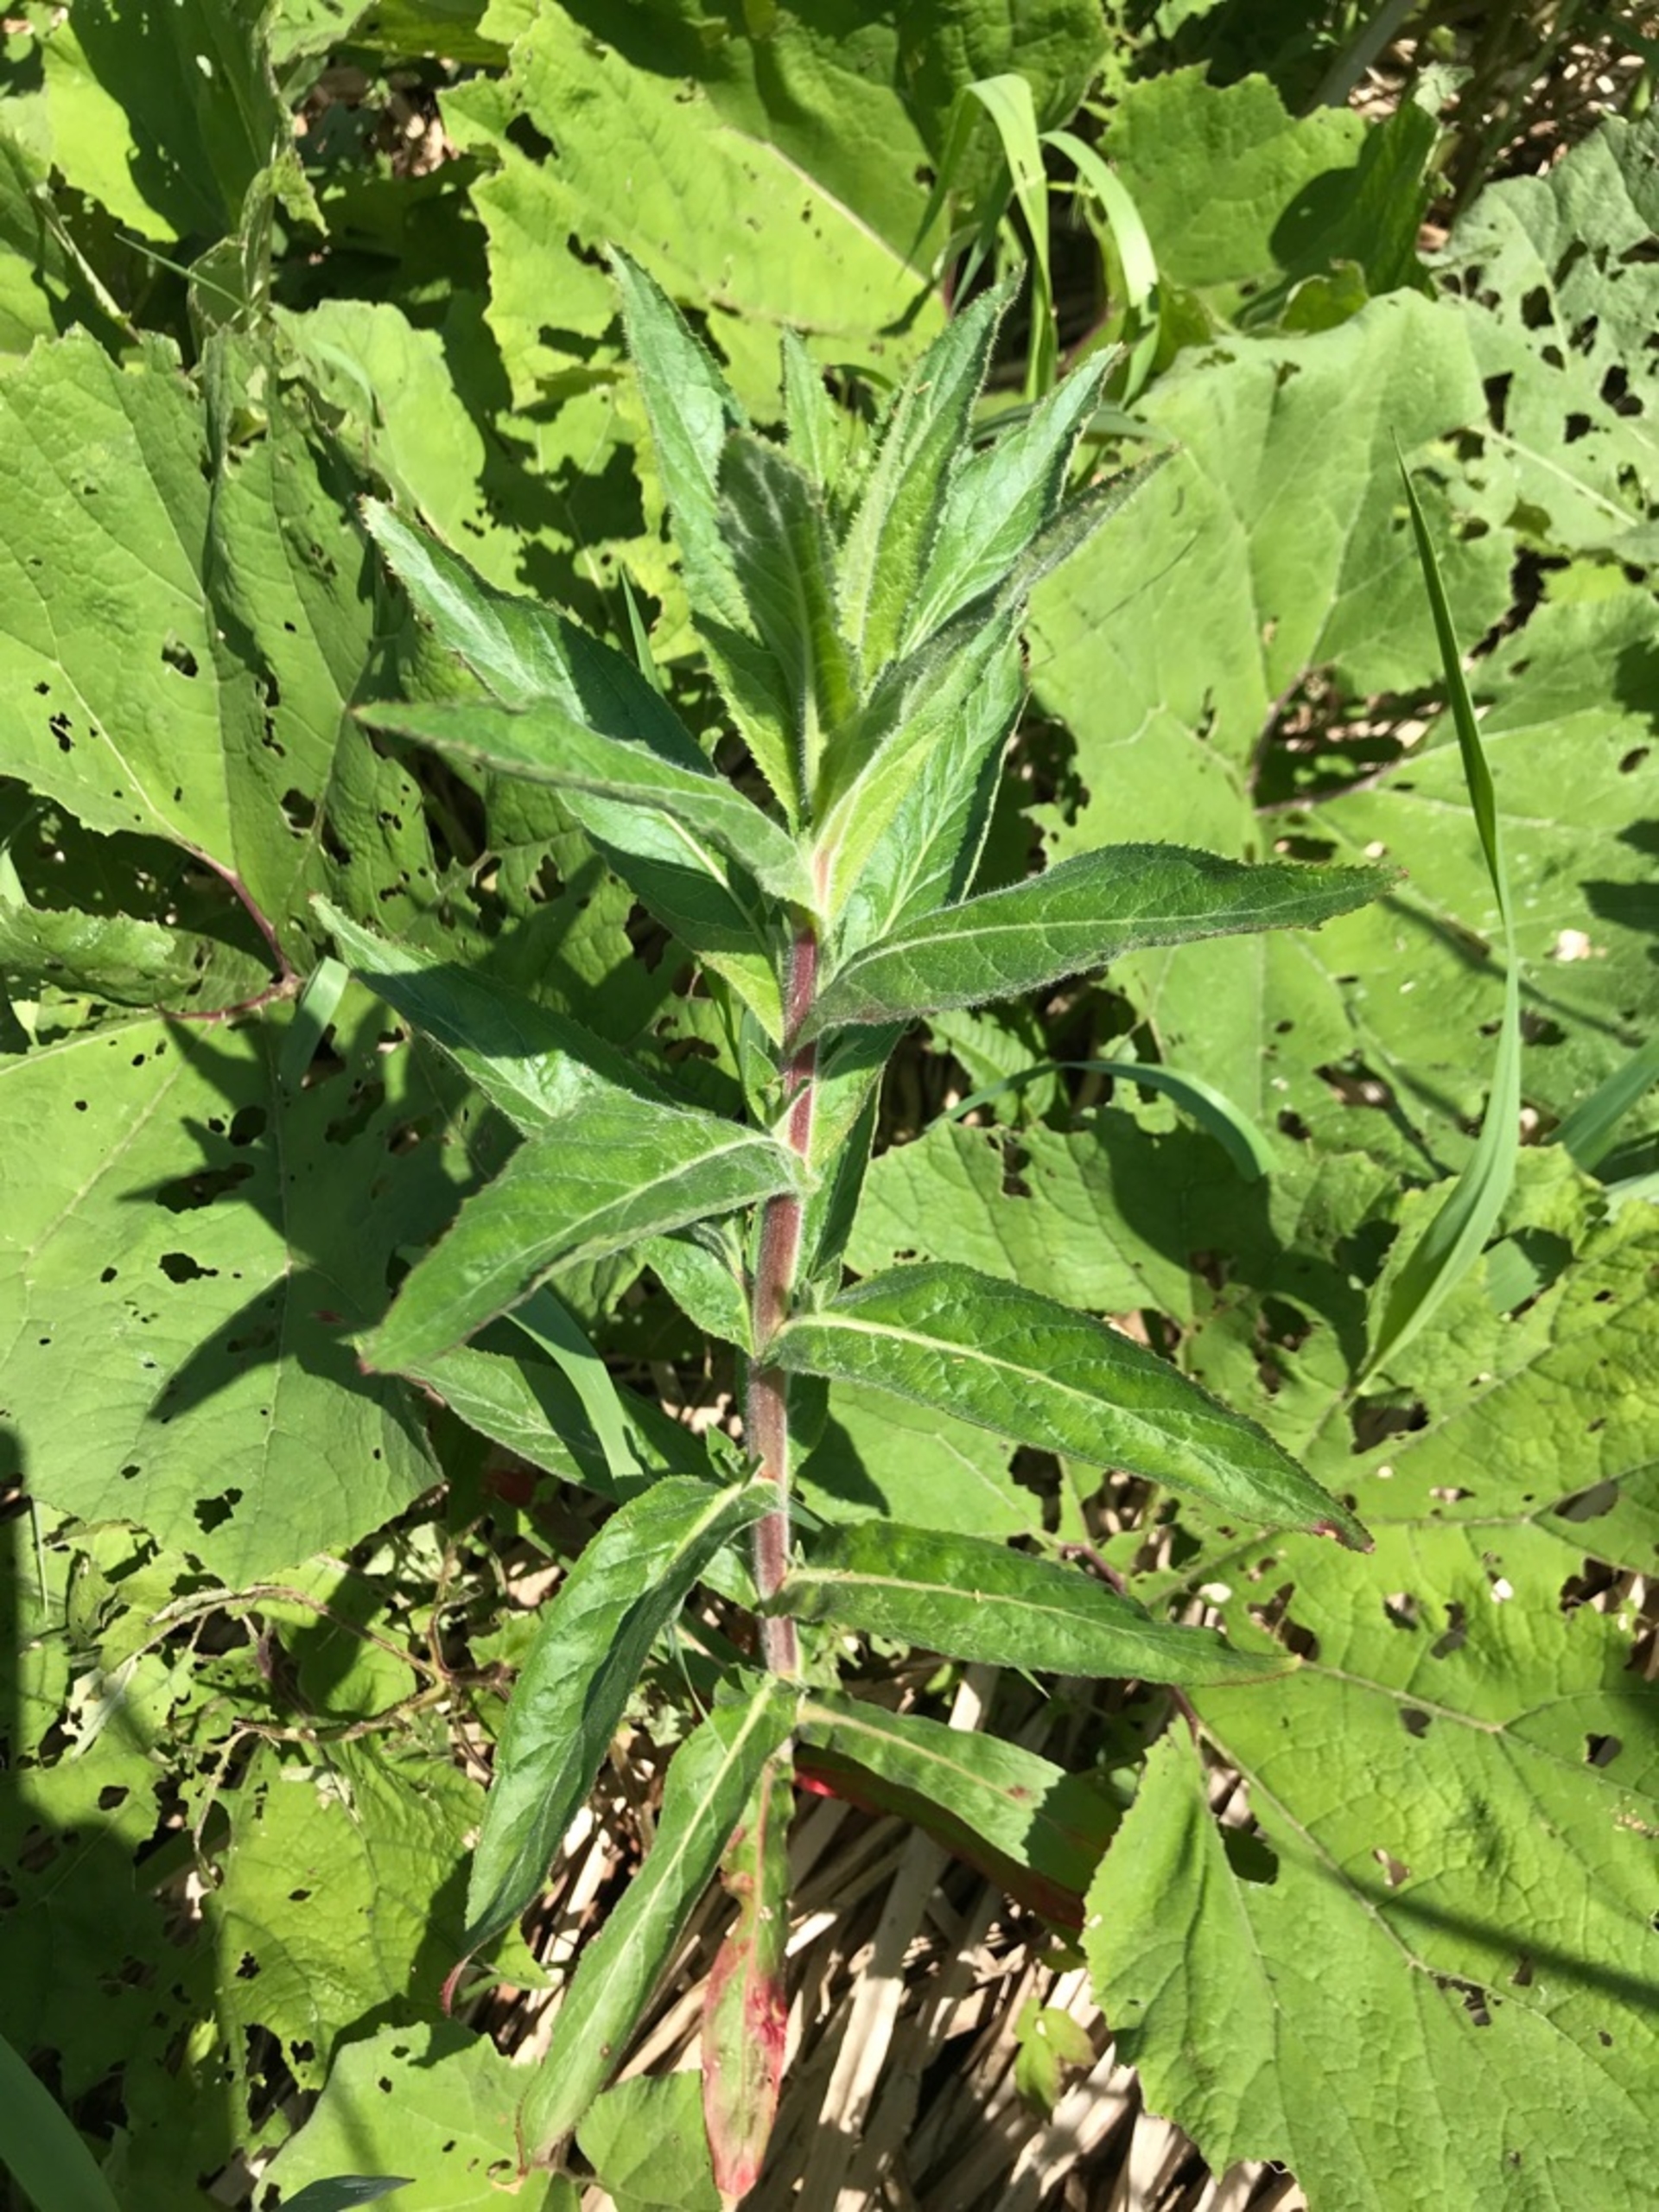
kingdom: Plantae
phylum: Tracheophyta
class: Magnoliopsida
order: Myrtales
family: Onagraceae
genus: Epilobium
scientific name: Epilobium hirsutum
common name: Lådden dueurt
